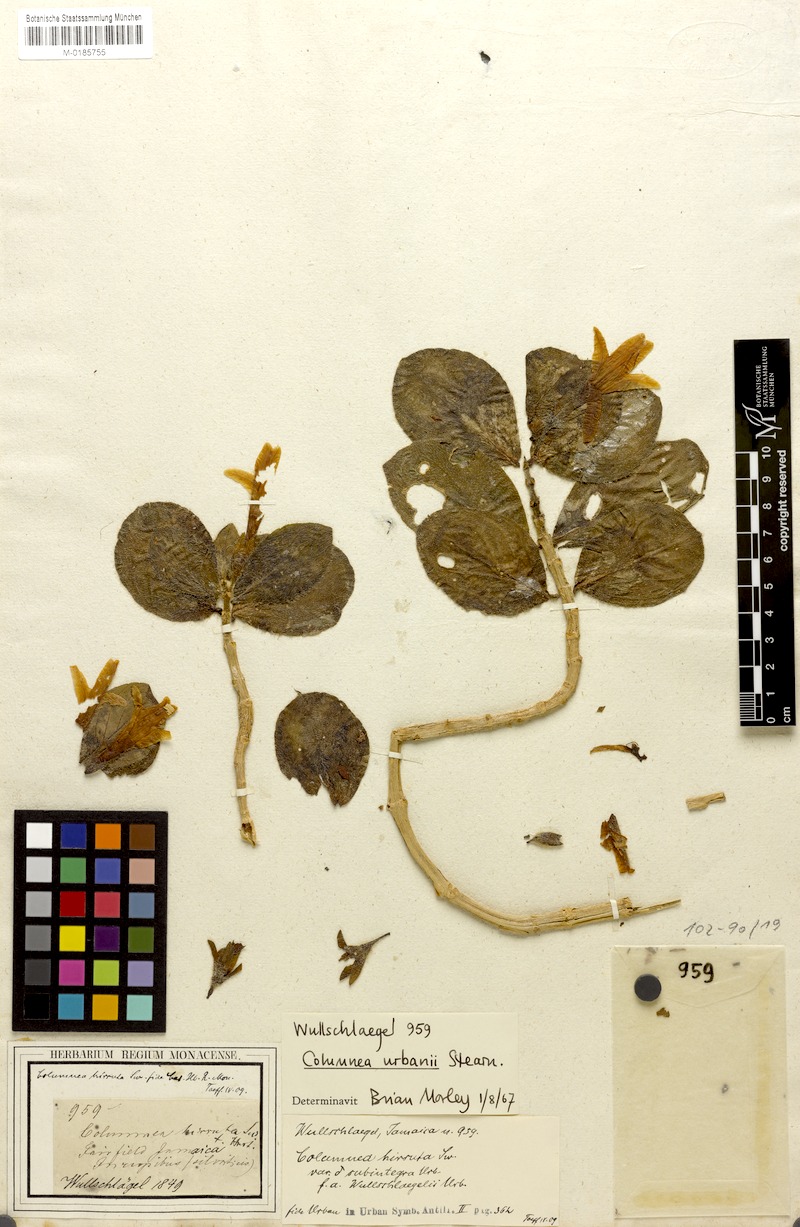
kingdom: Plantae
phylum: Tracheophyta
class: Magnoliopsida
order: Lamiales
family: Gesneriaceae
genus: Columnea
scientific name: Columnea urbanii
